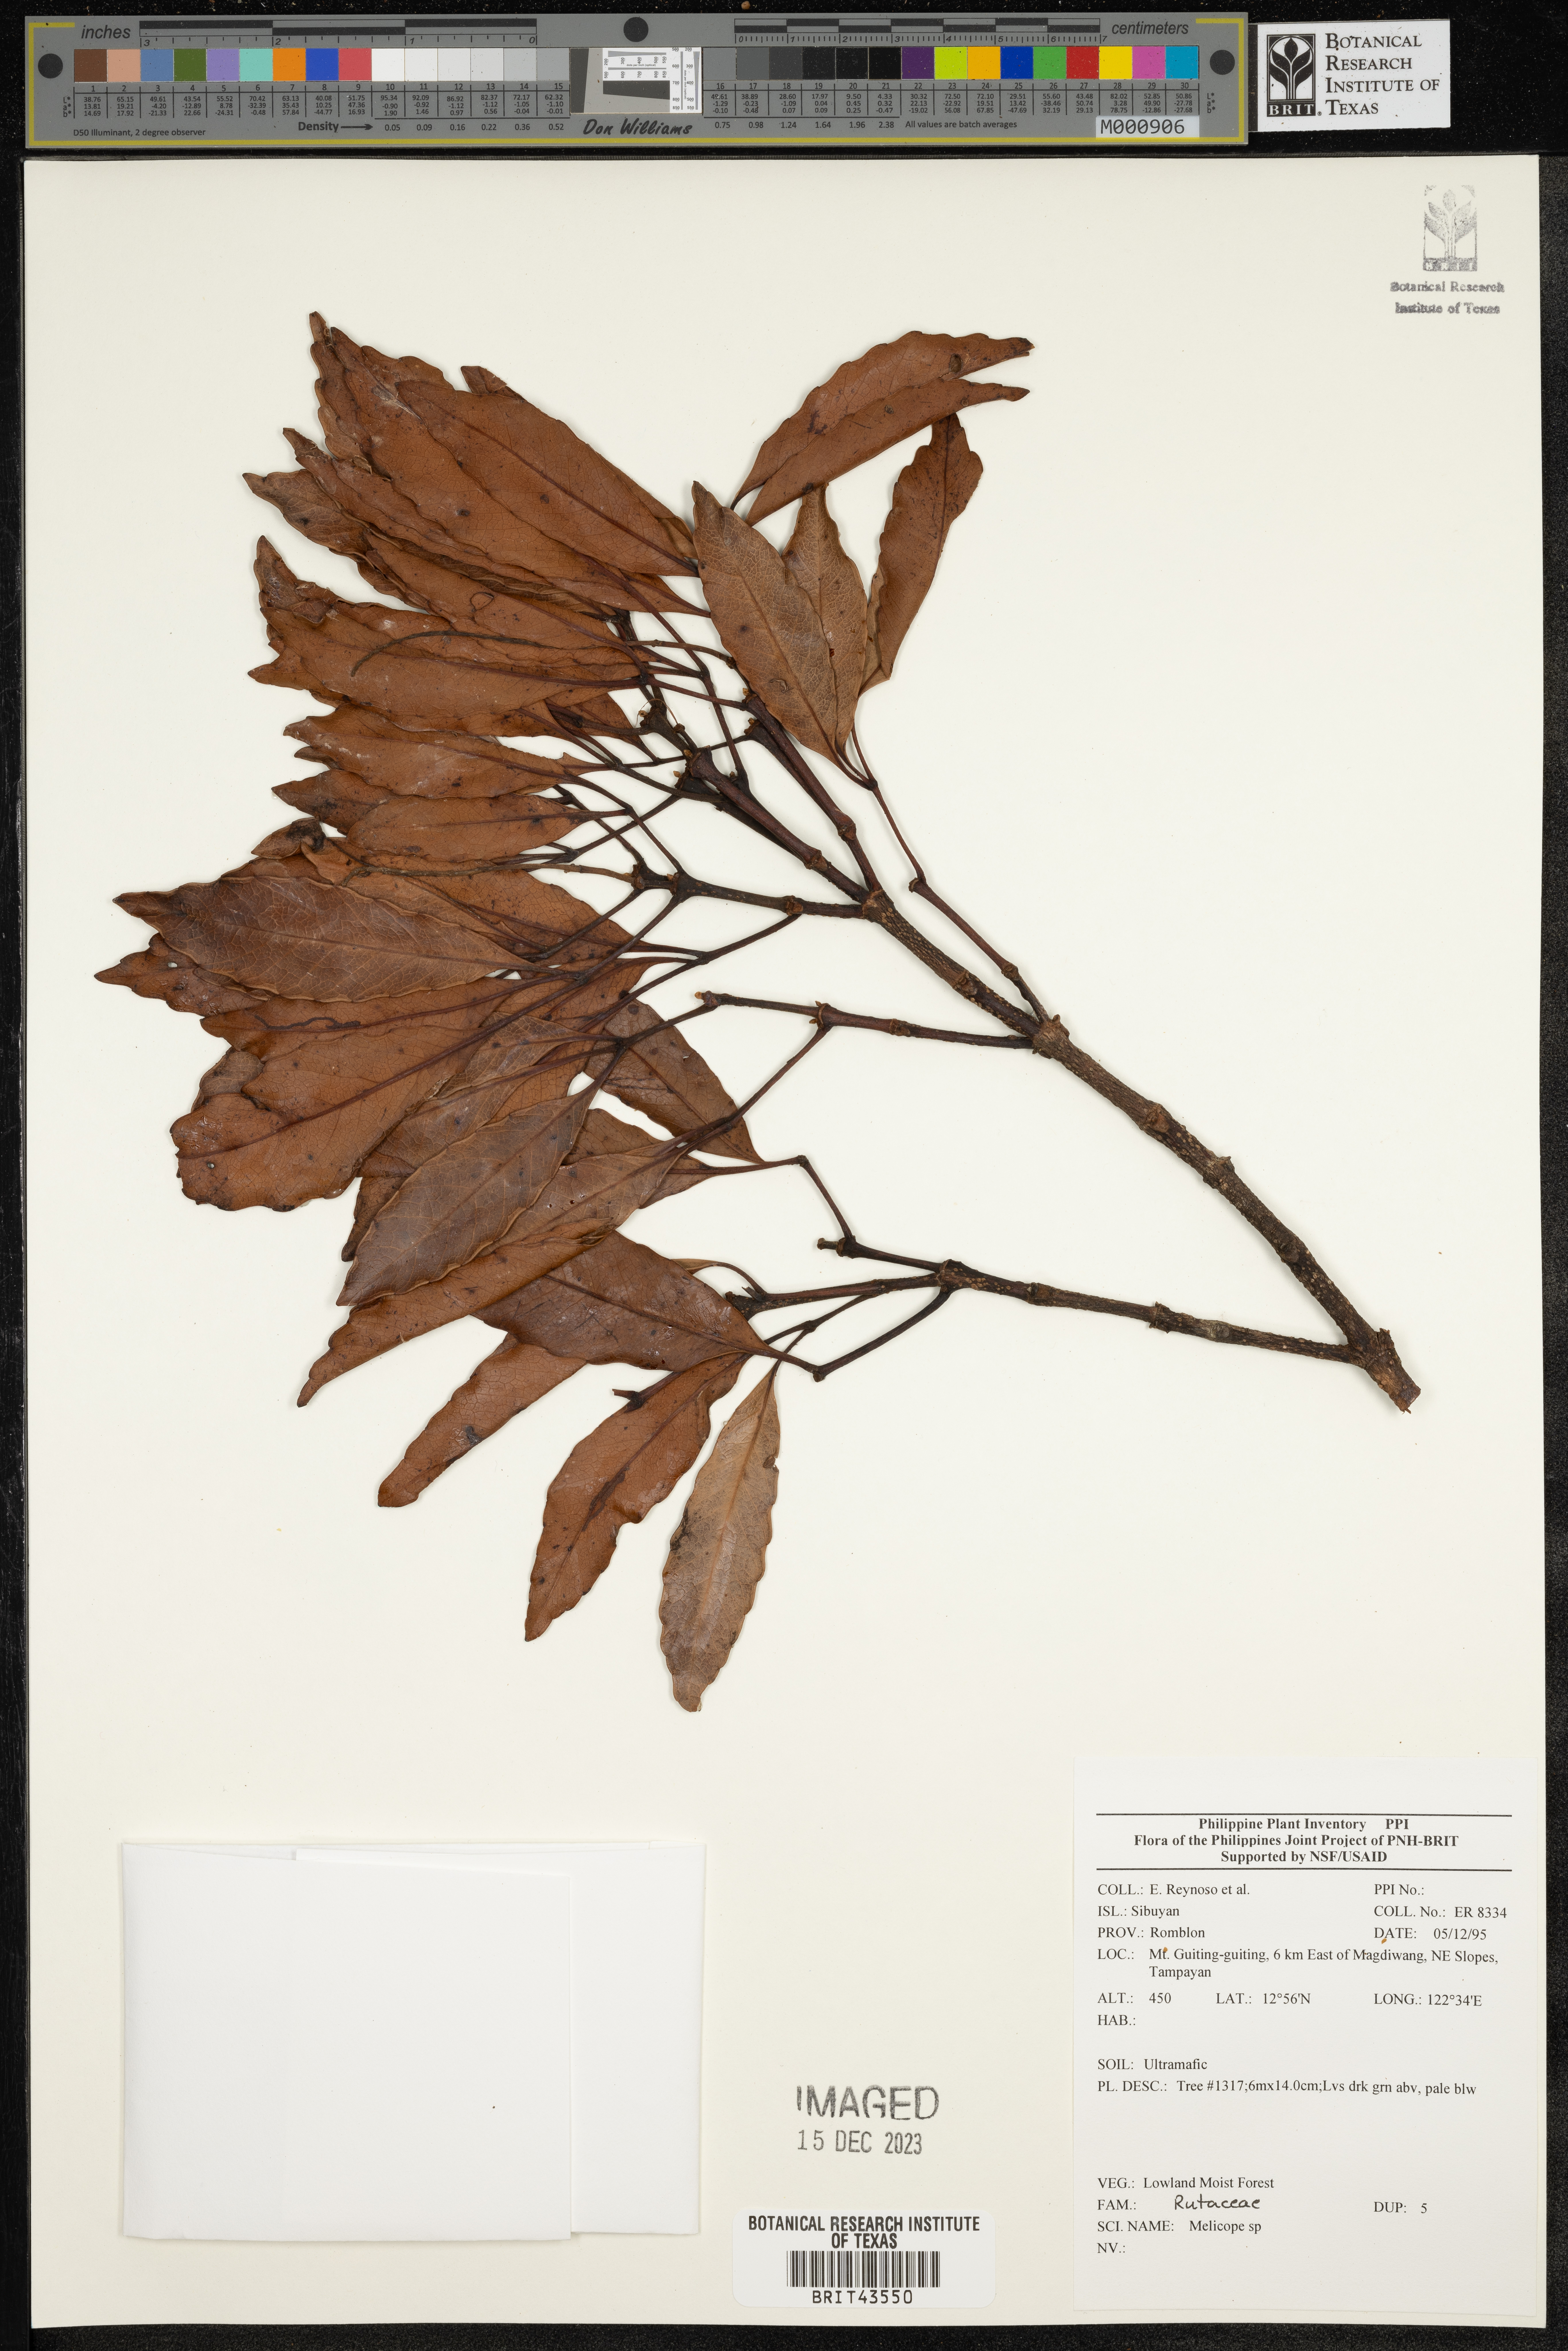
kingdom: Plantae
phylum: Tracheophyta
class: Polypodiopsida
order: Ophioglossales
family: Ophioglossaceae
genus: Botrypus
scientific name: Botrypus virginianus
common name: Common grapefern
